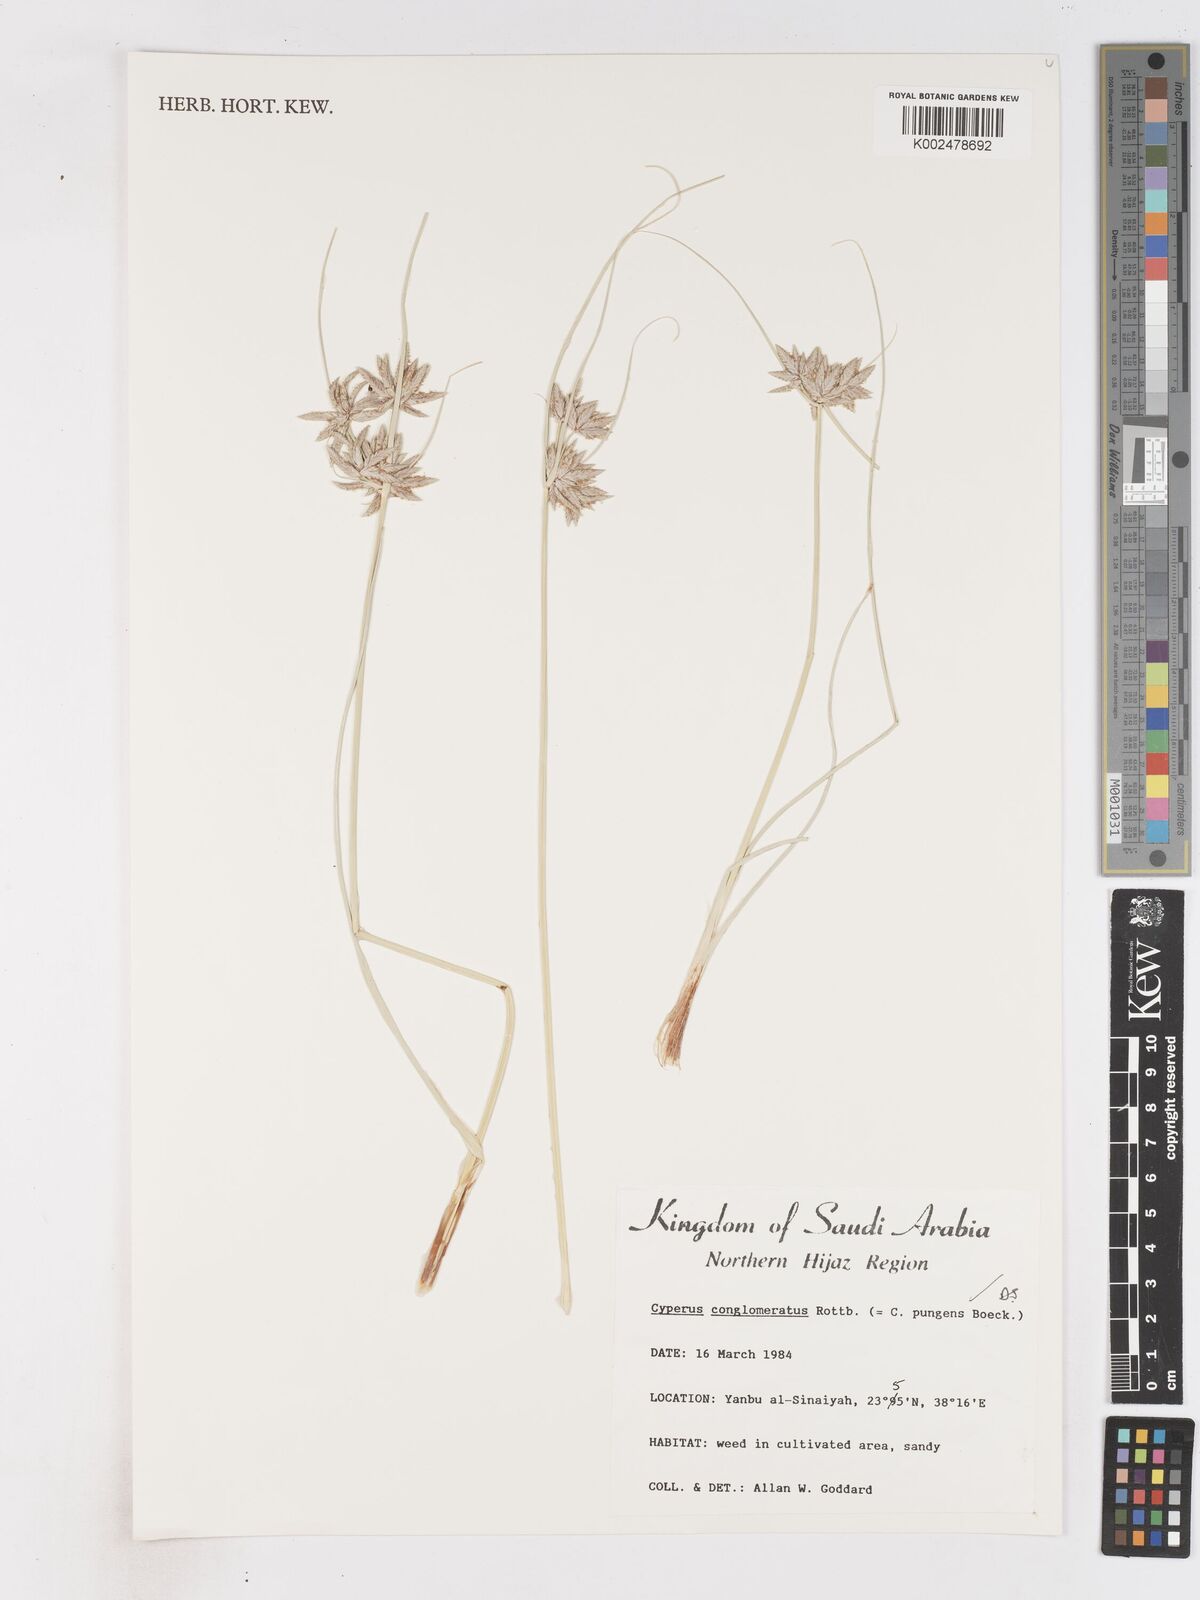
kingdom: Plantae
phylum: Tracheophyta
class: Liliopsida
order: Poales
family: Cyperaceae
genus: Cyperus
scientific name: Cyperus conglomeratus
